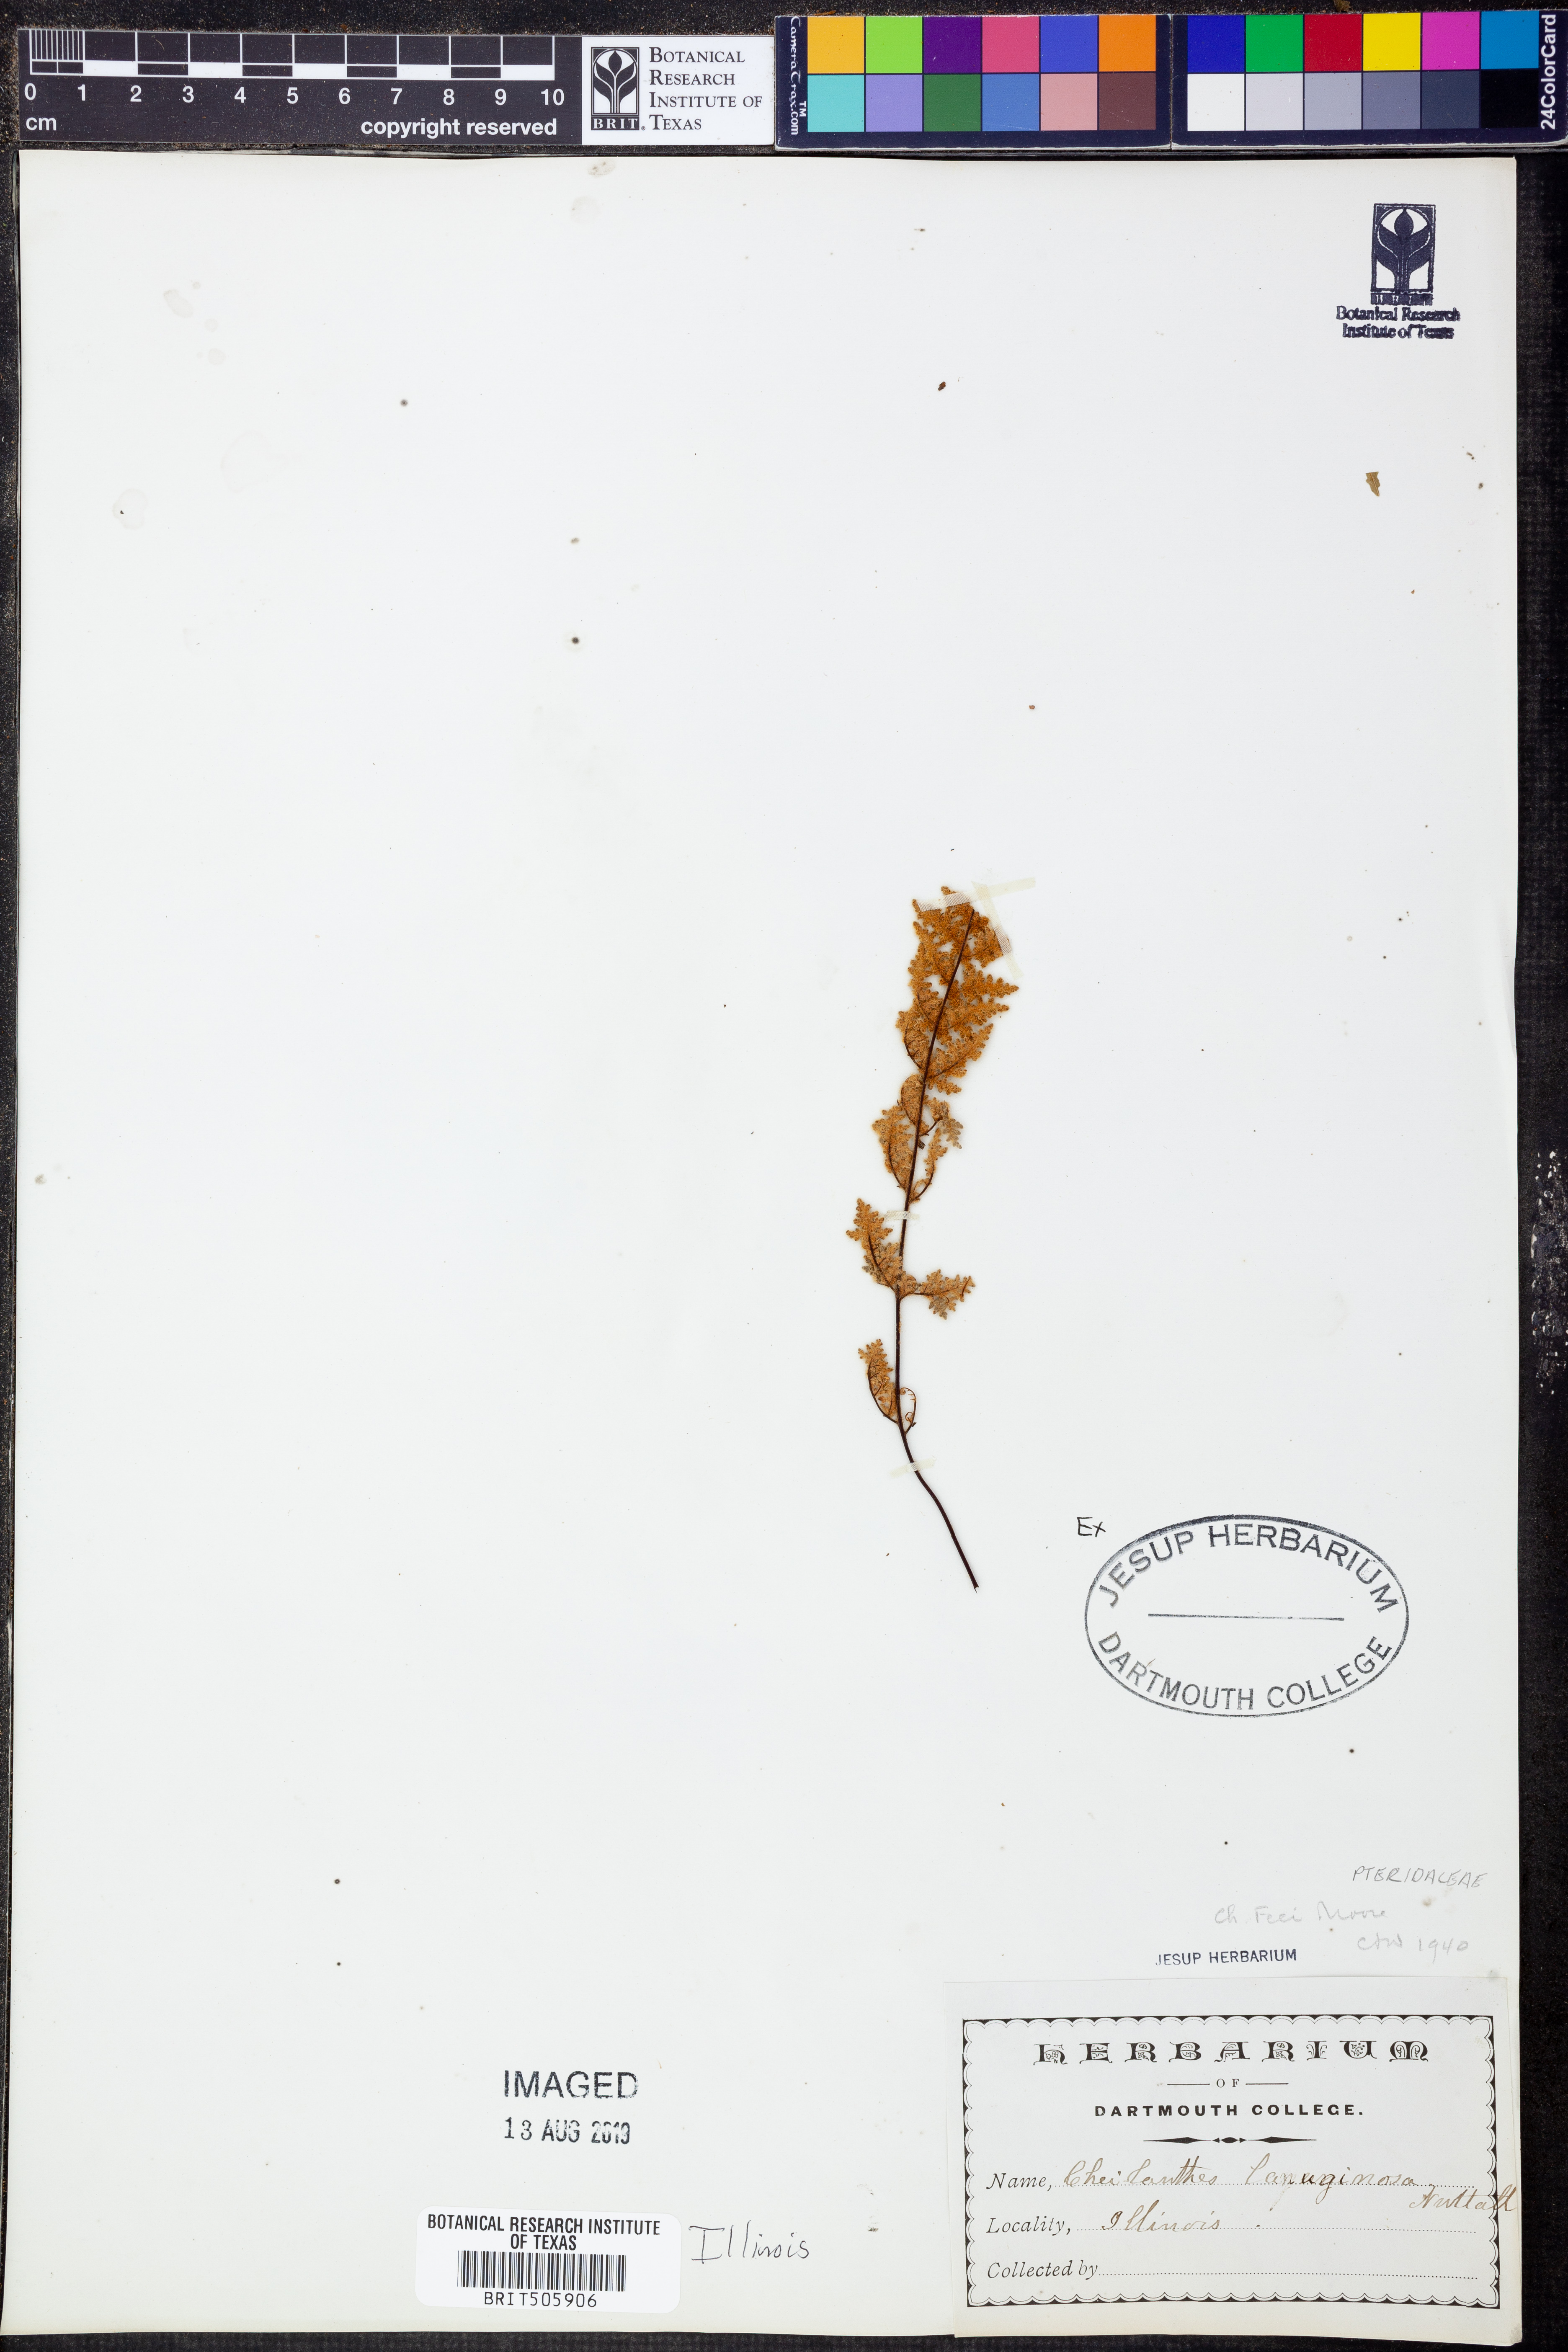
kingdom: Plantae
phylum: Tracheophyta
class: Polypodiopsida
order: Polypodiales
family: Pteridaceae
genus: Myriopteris
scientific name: Myriopteris gracilis
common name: Fee's lip fern
